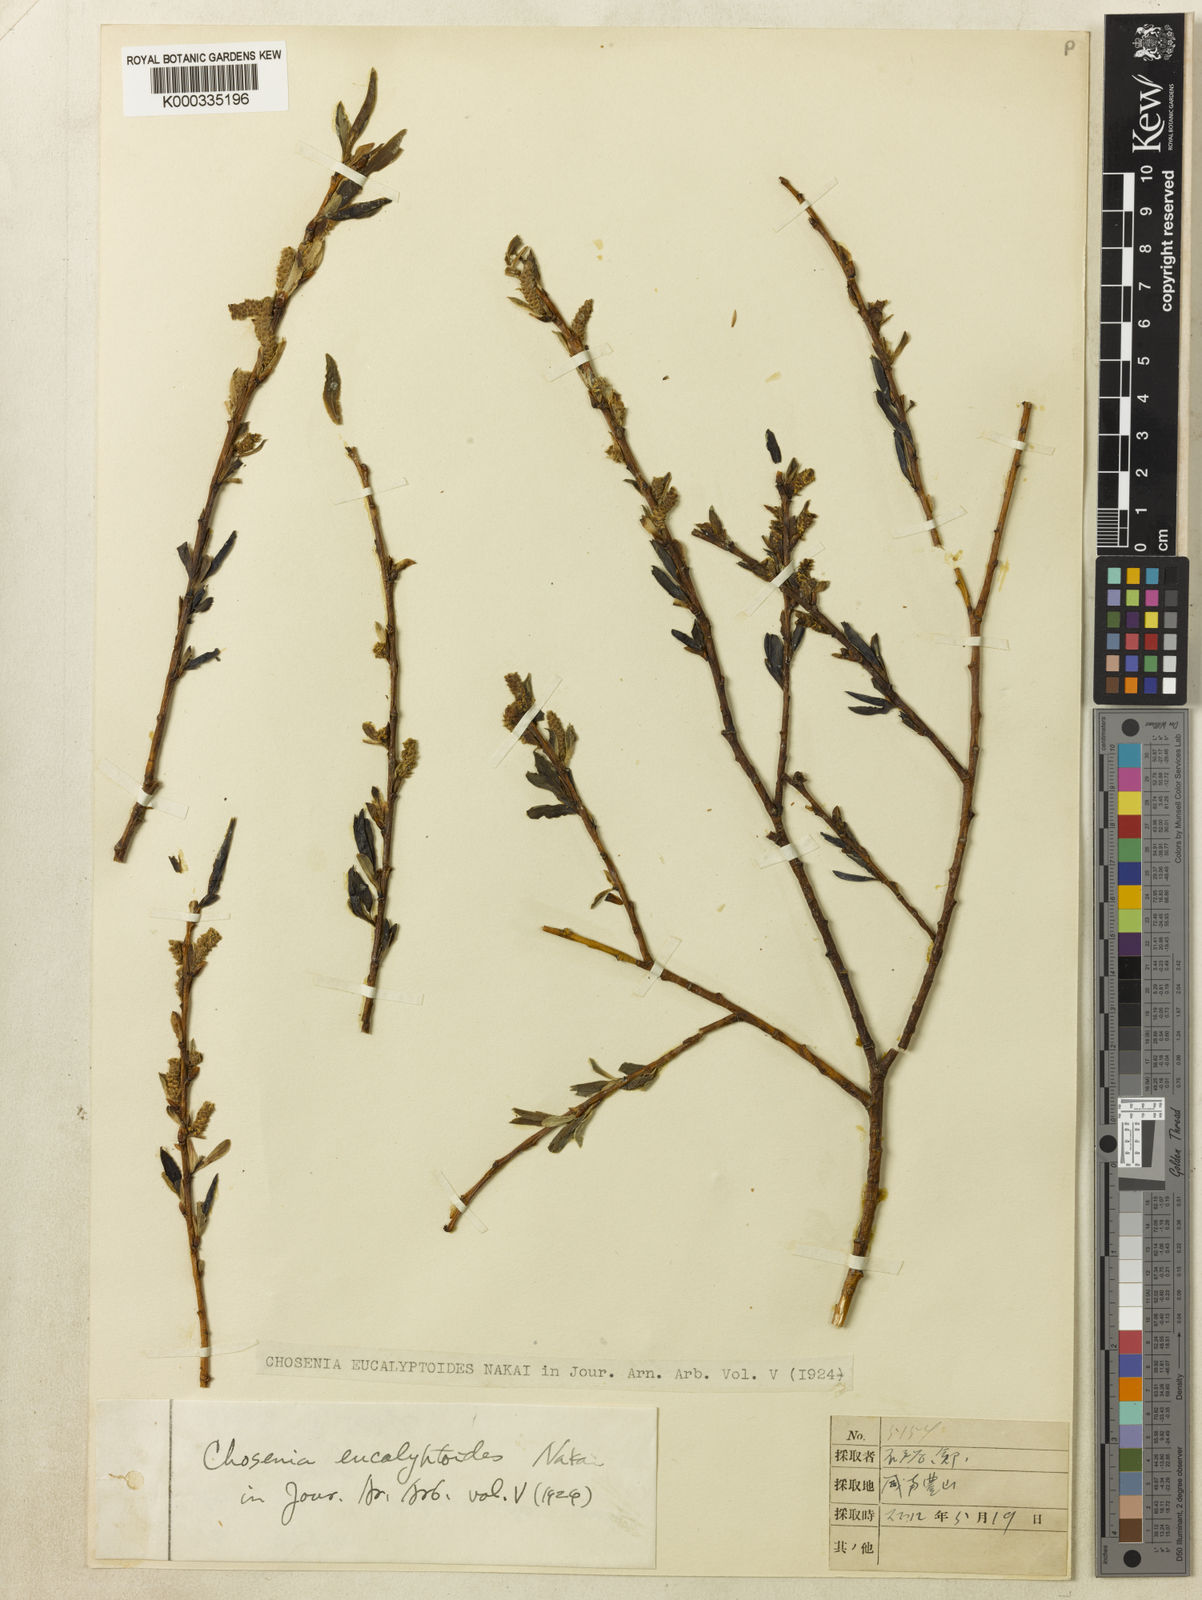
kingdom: Plantae
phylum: Tracheophyta
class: Magnoliopsida
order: Malpighiales
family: Salicaceae
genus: Salix
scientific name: Salix
